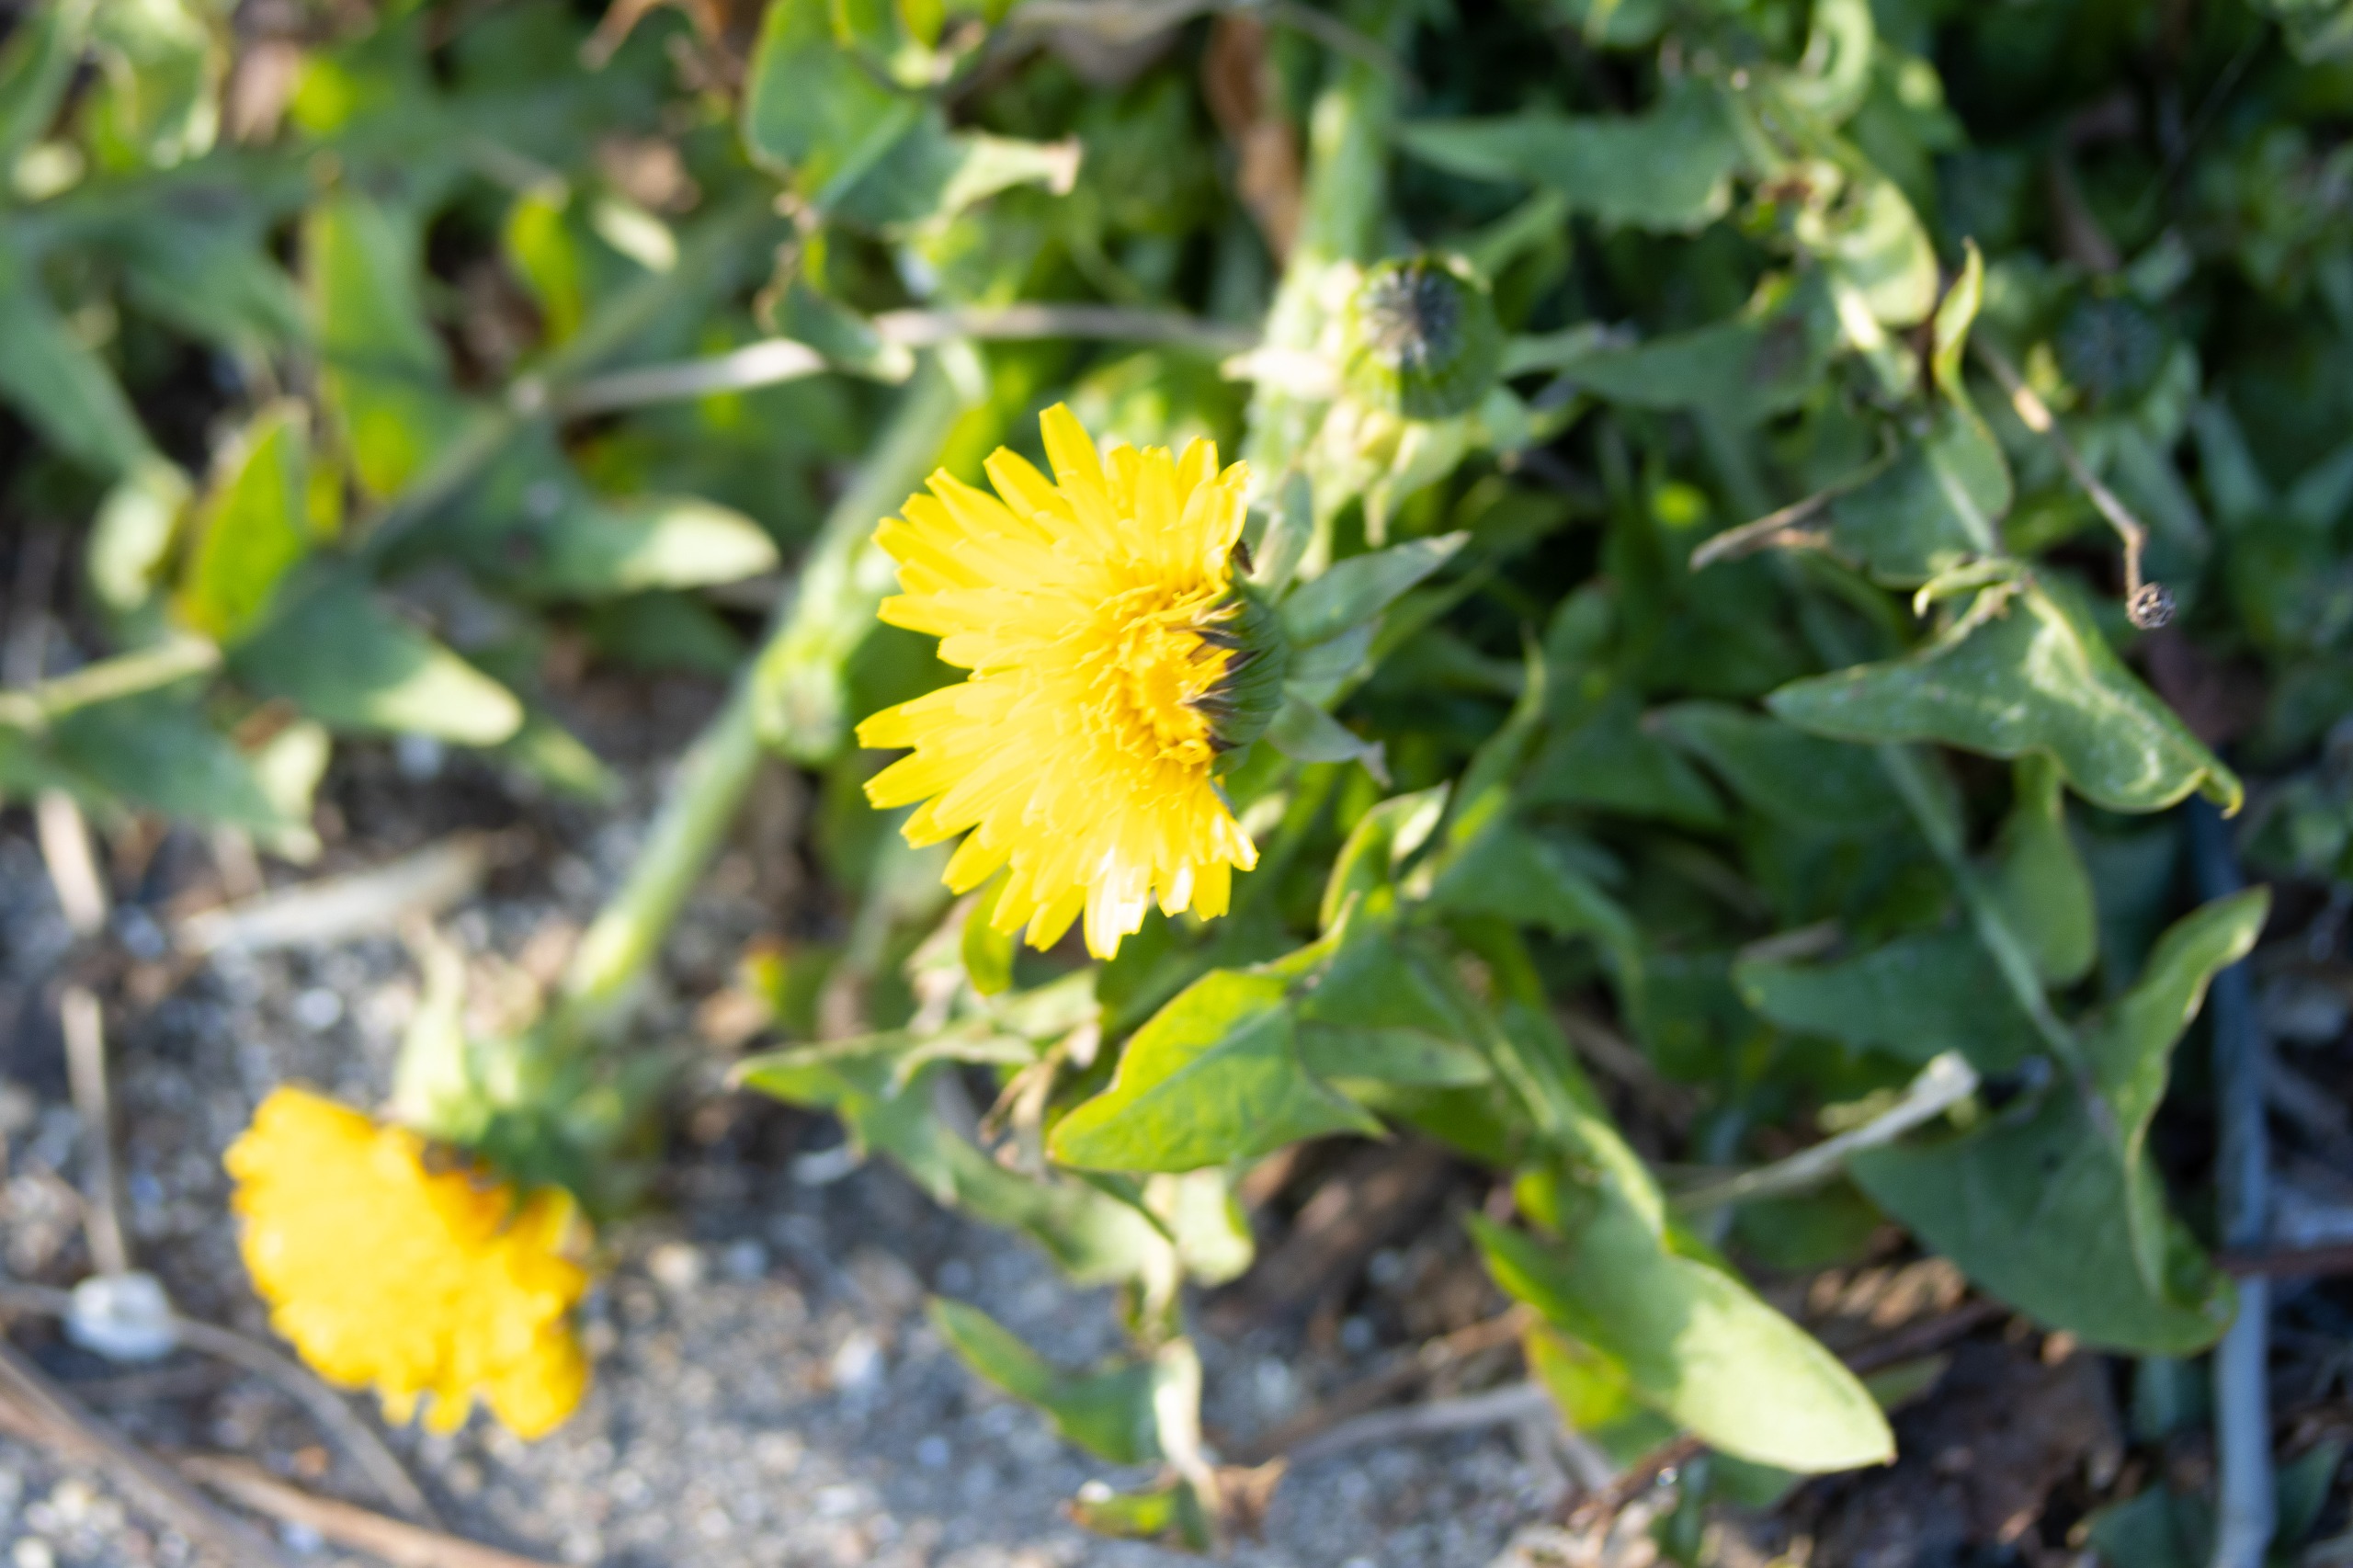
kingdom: Plantae
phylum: Tracheophyta
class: Magnoliopsida
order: Asterales
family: Asteraceae
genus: Taraxacum
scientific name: Taraxacum
